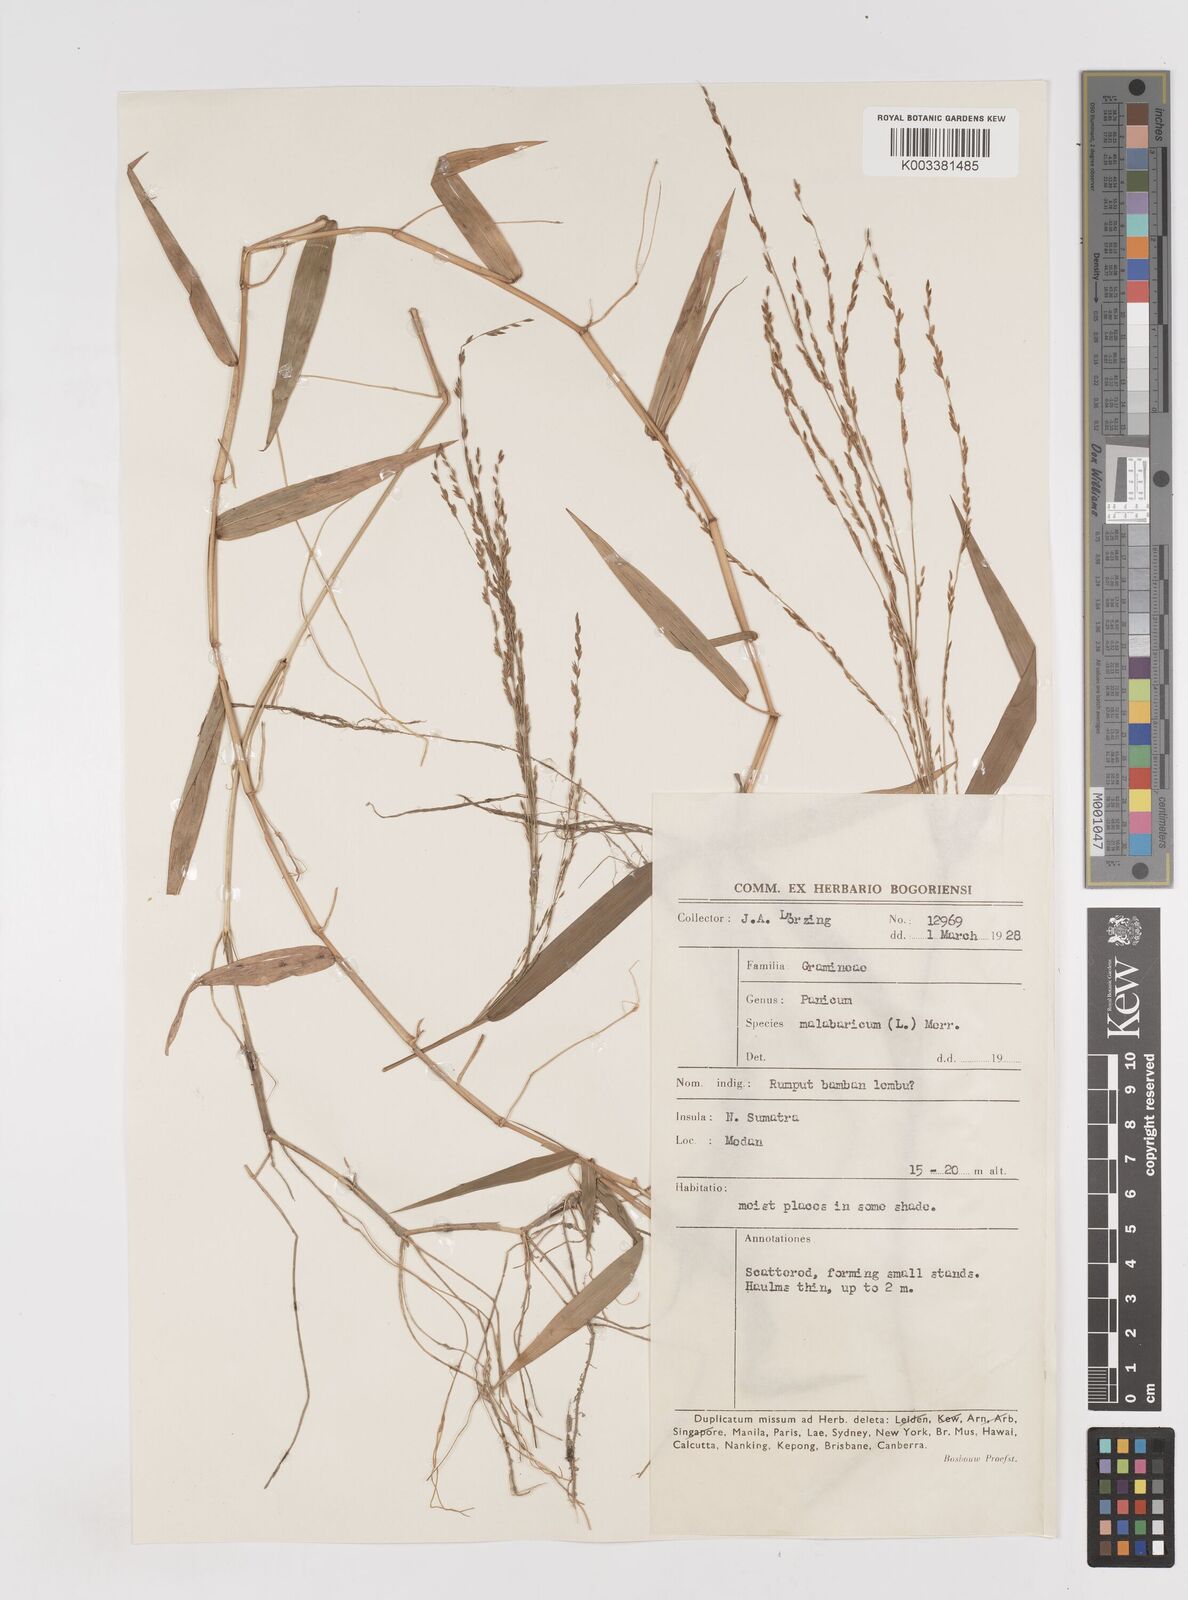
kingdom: Plantae
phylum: Tracheophyta
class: Liliopsida
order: Poales
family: Poaceae
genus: Ottochloa
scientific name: Ottochloa nodosa
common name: Slender-panic grass
